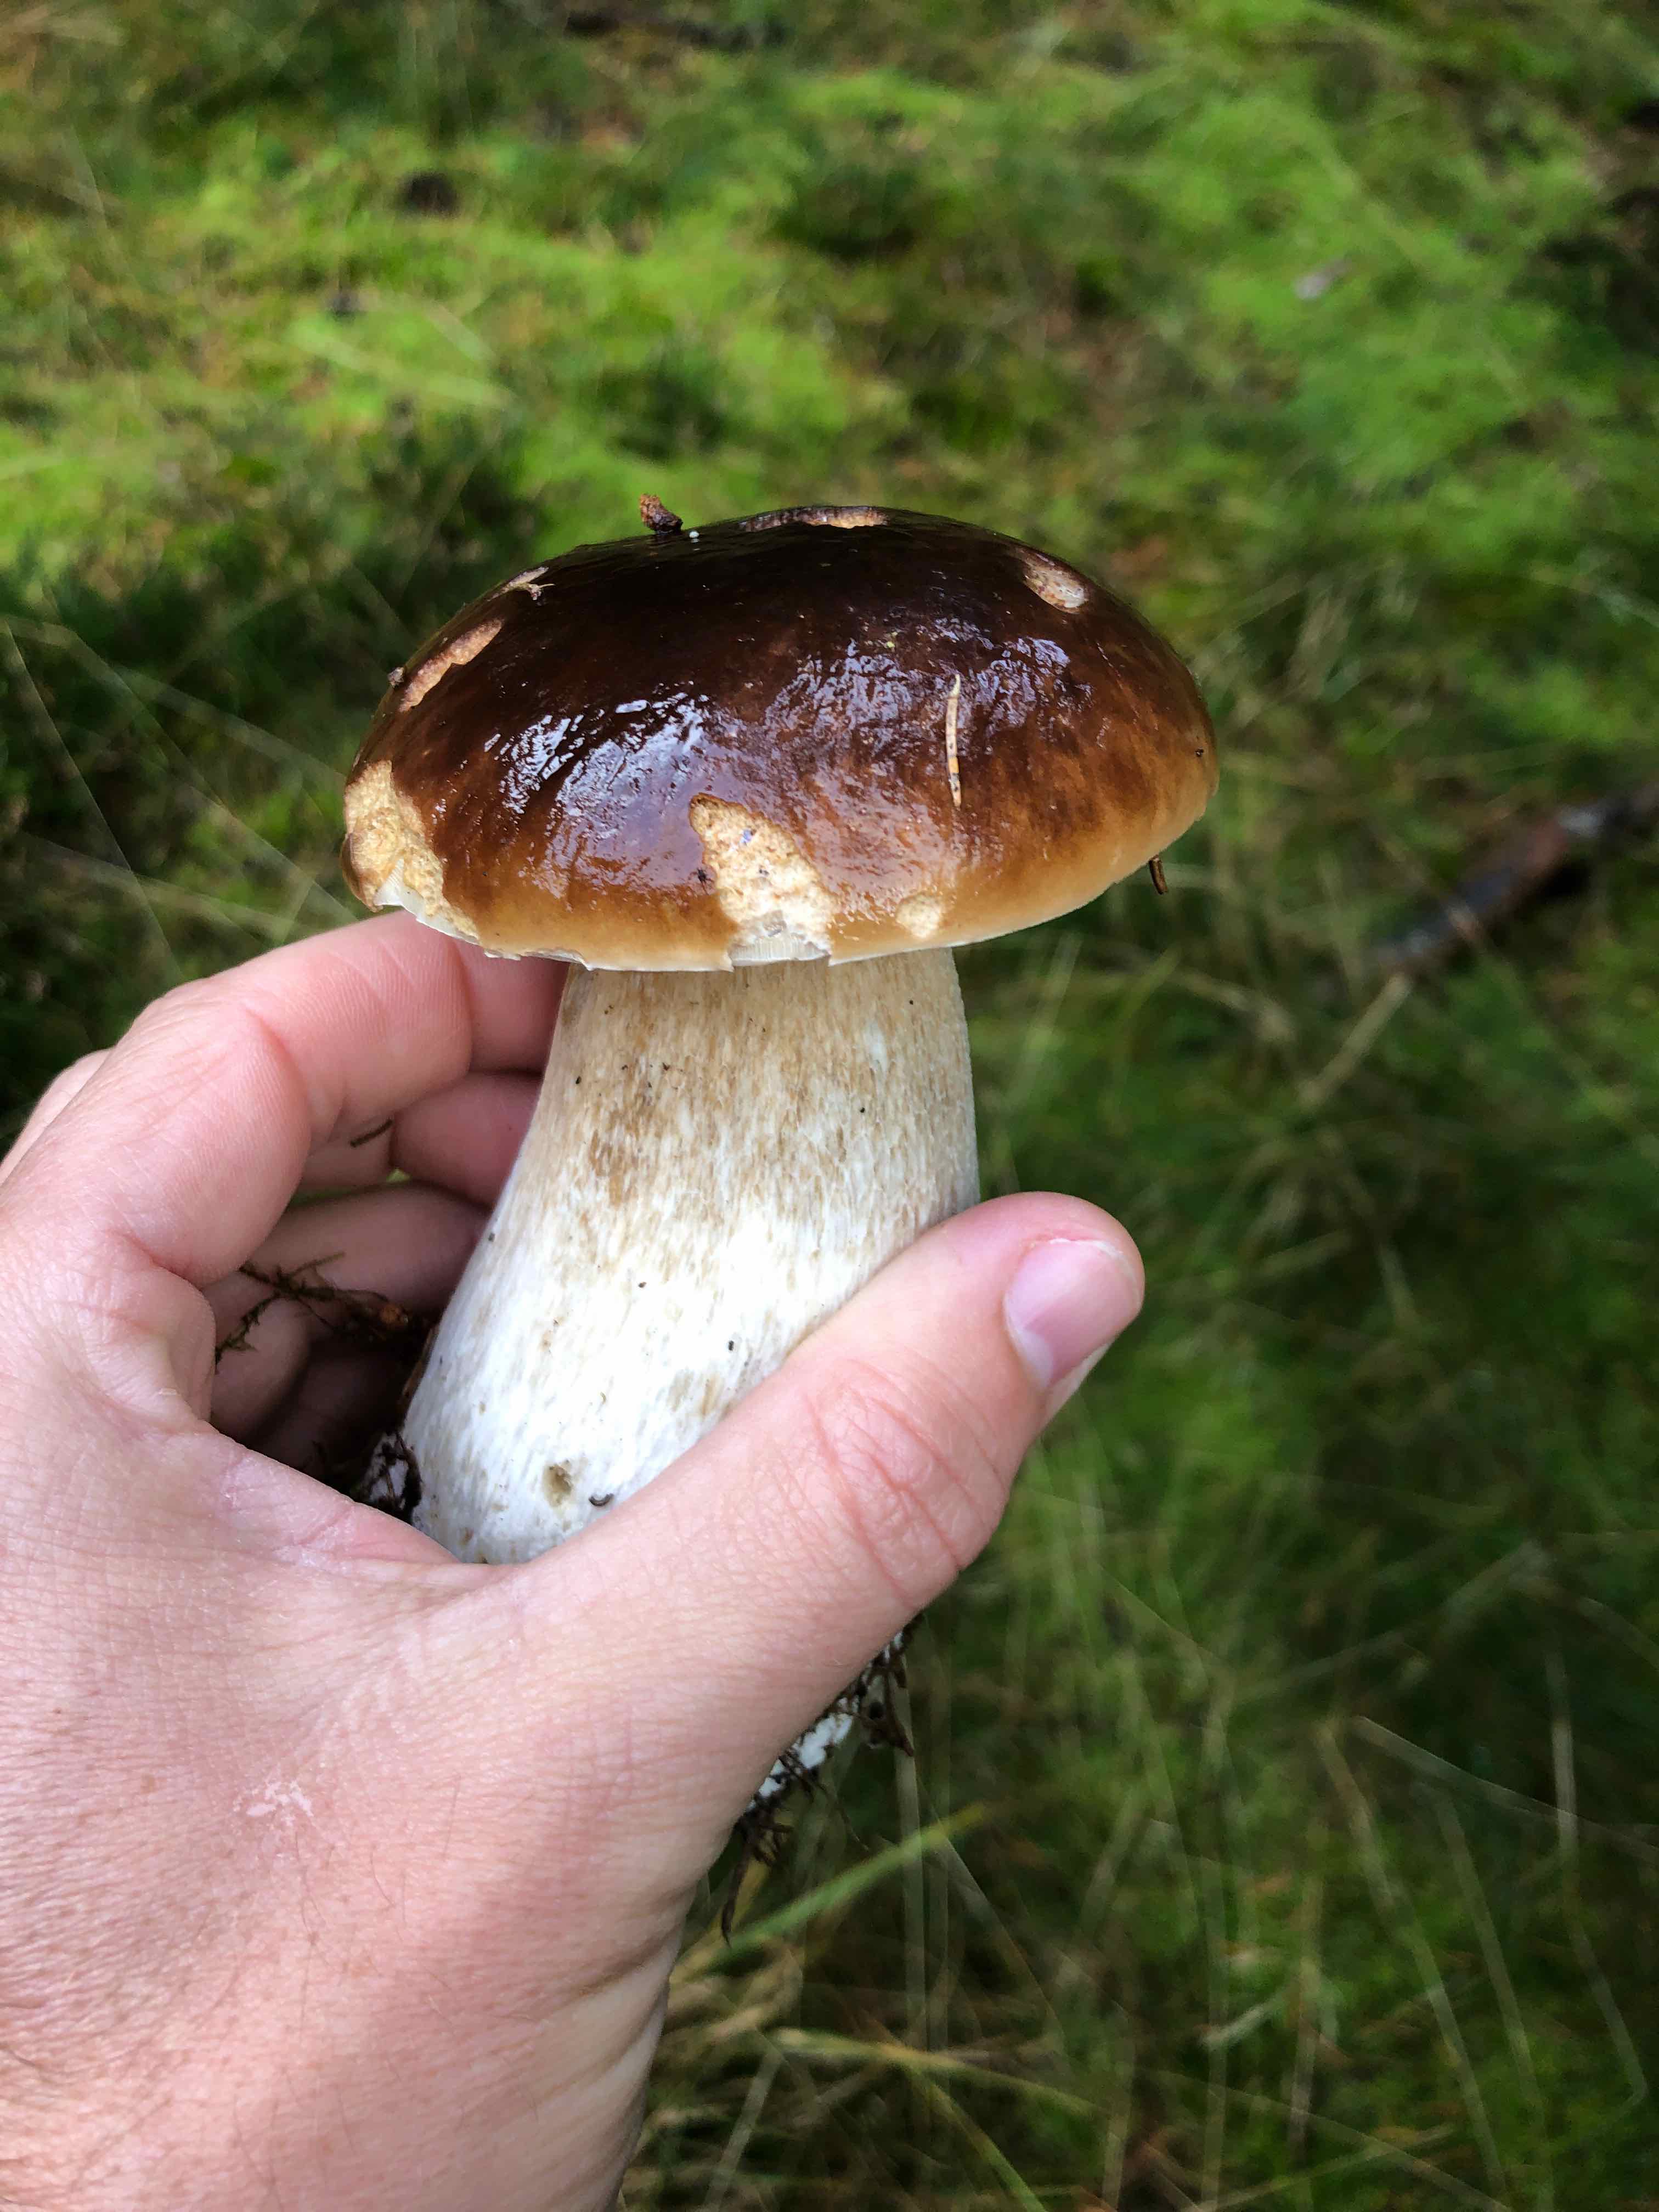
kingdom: Fungi
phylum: Basidiomycota
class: Agaricomycetes
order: Boletales
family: Boletaceae
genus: Boletus
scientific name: Boletus edulis
